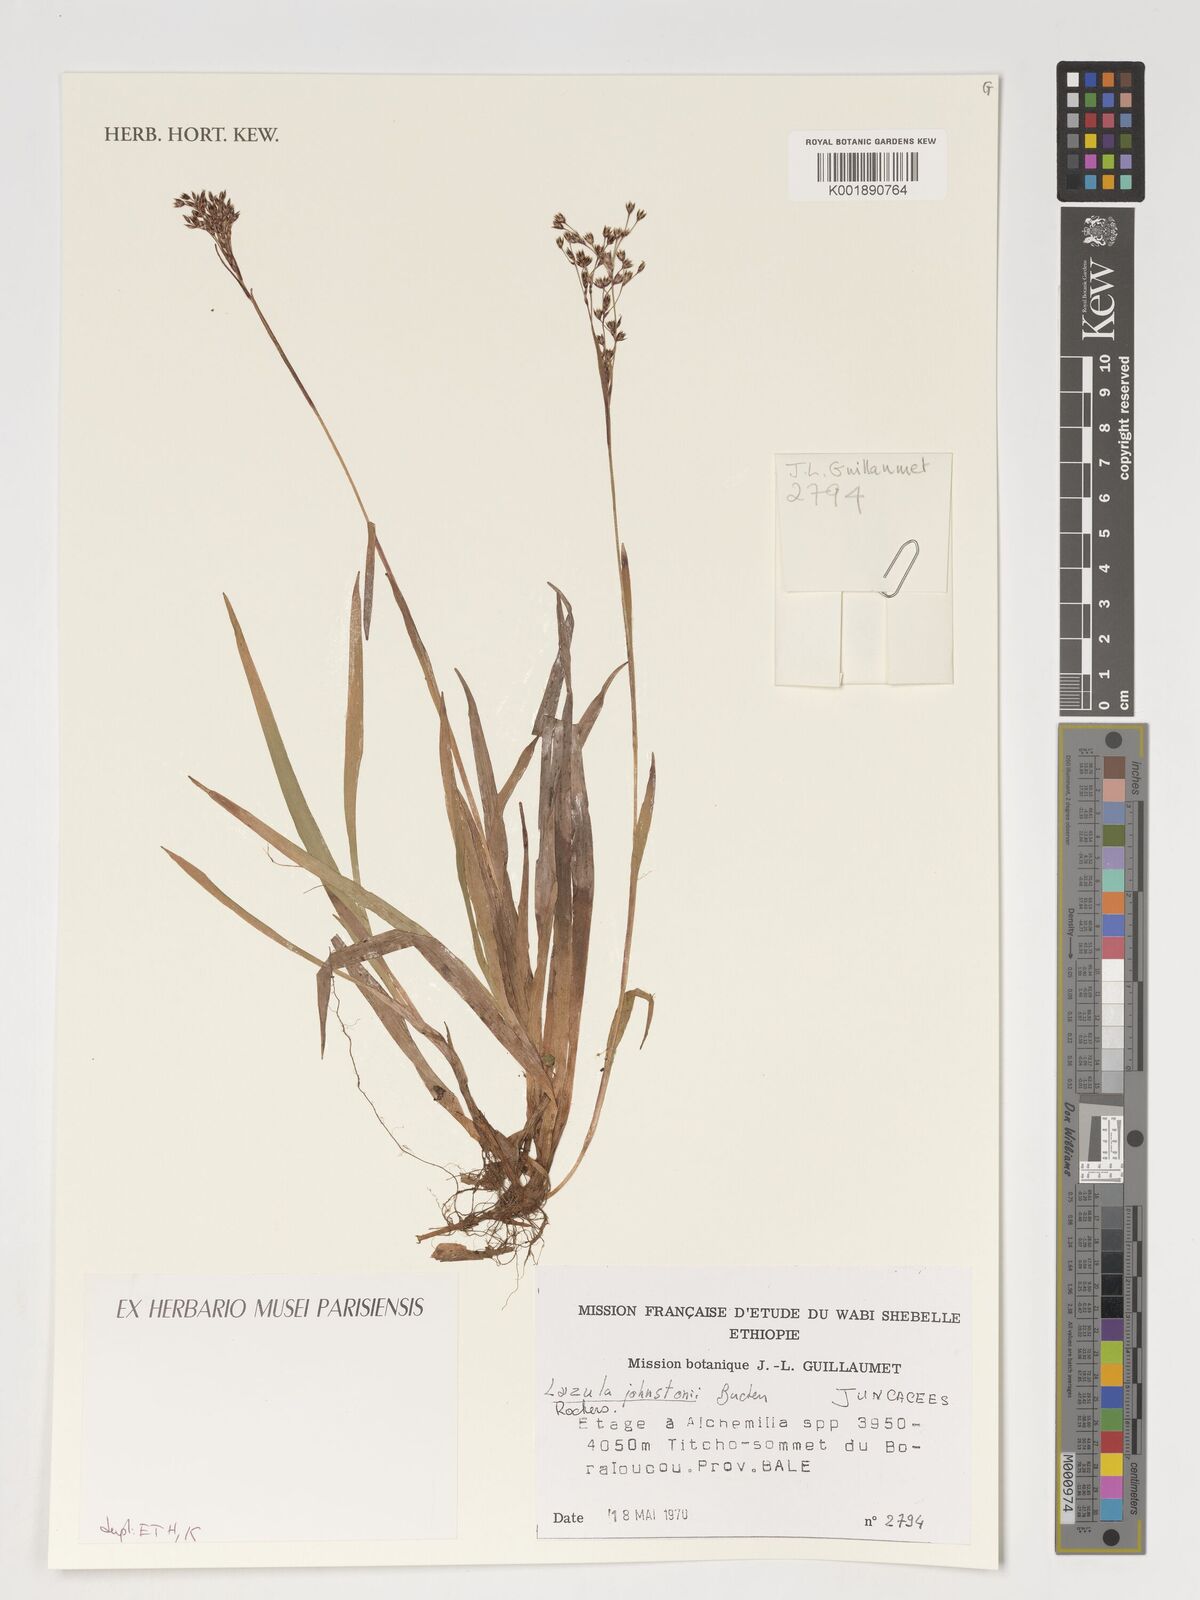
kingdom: Plantae
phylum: Tracheophyta
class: Liliopsida
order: Poales
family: Juncaceae
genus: Luzula
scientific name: Luzula johnstonii
